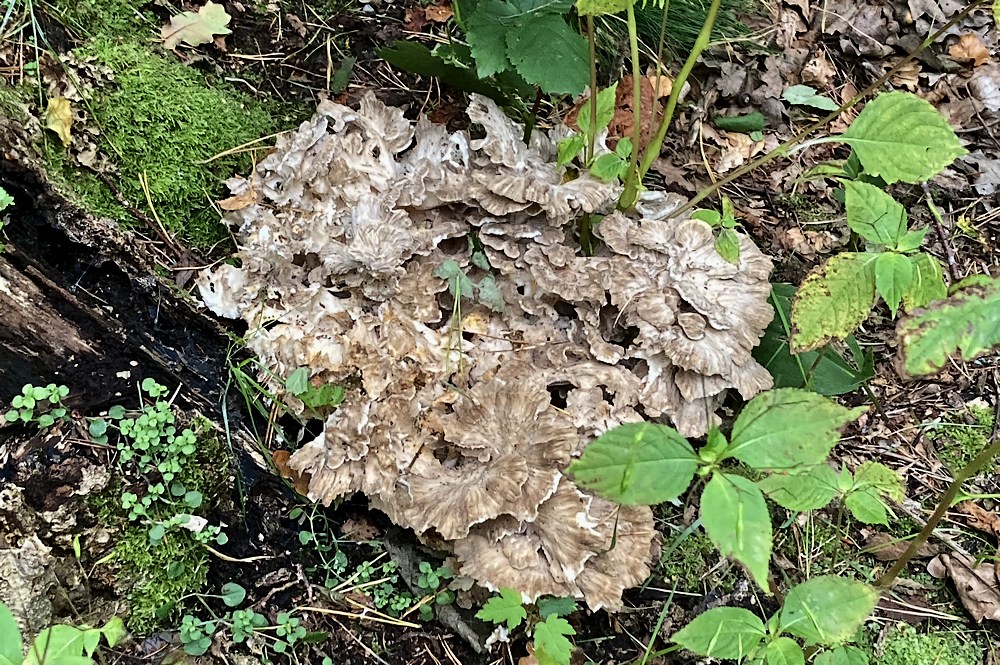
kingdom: Fungi
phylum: Basidiomycota
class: Agaricomycetes
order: Polyporales
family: Grifolaceae
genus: Grifola
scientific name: Grifola frondosa
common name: tueporesvamp
